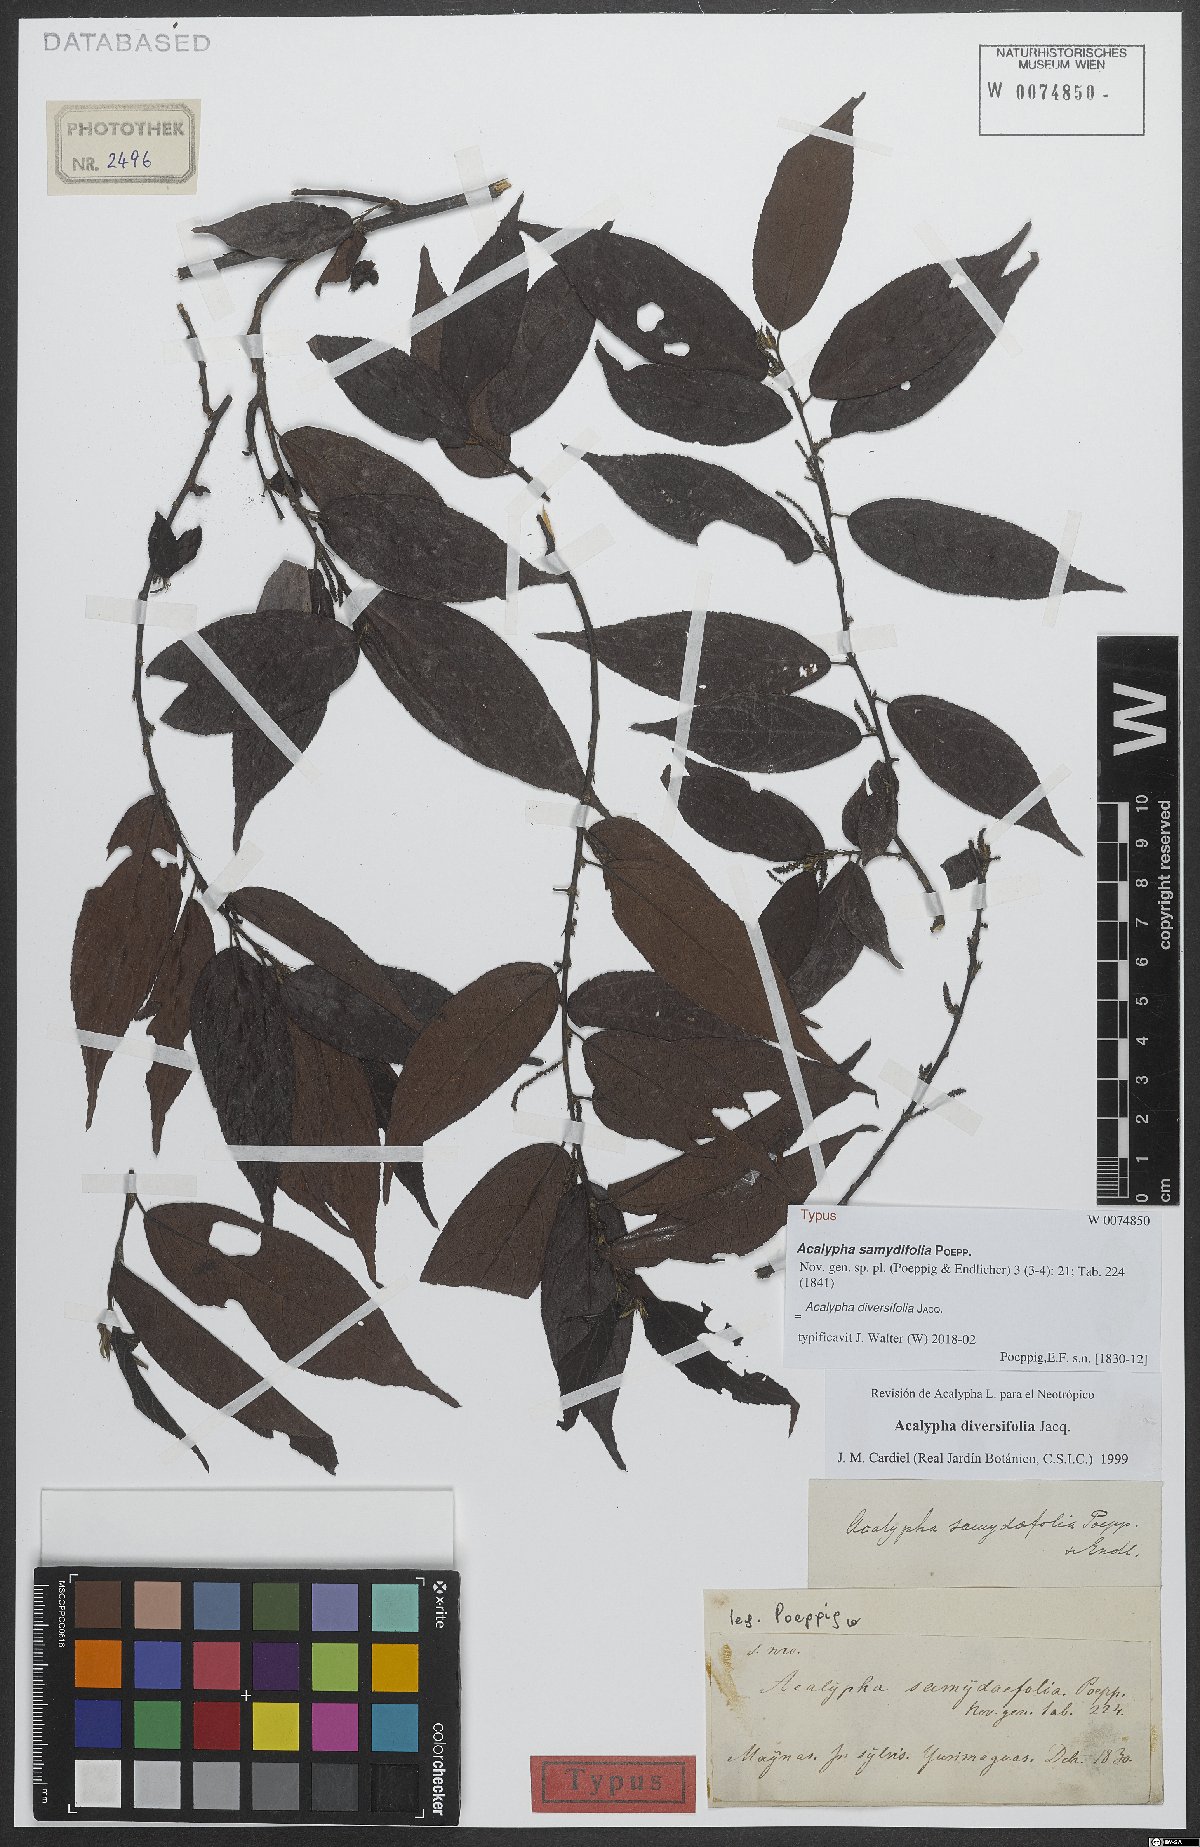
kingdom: Plantae
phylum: Tracheophyta
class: Magnoliopsida
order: Malpighiales
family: Euphorbiaceae
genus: Acalypha
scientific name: Acalypha diversifolia
